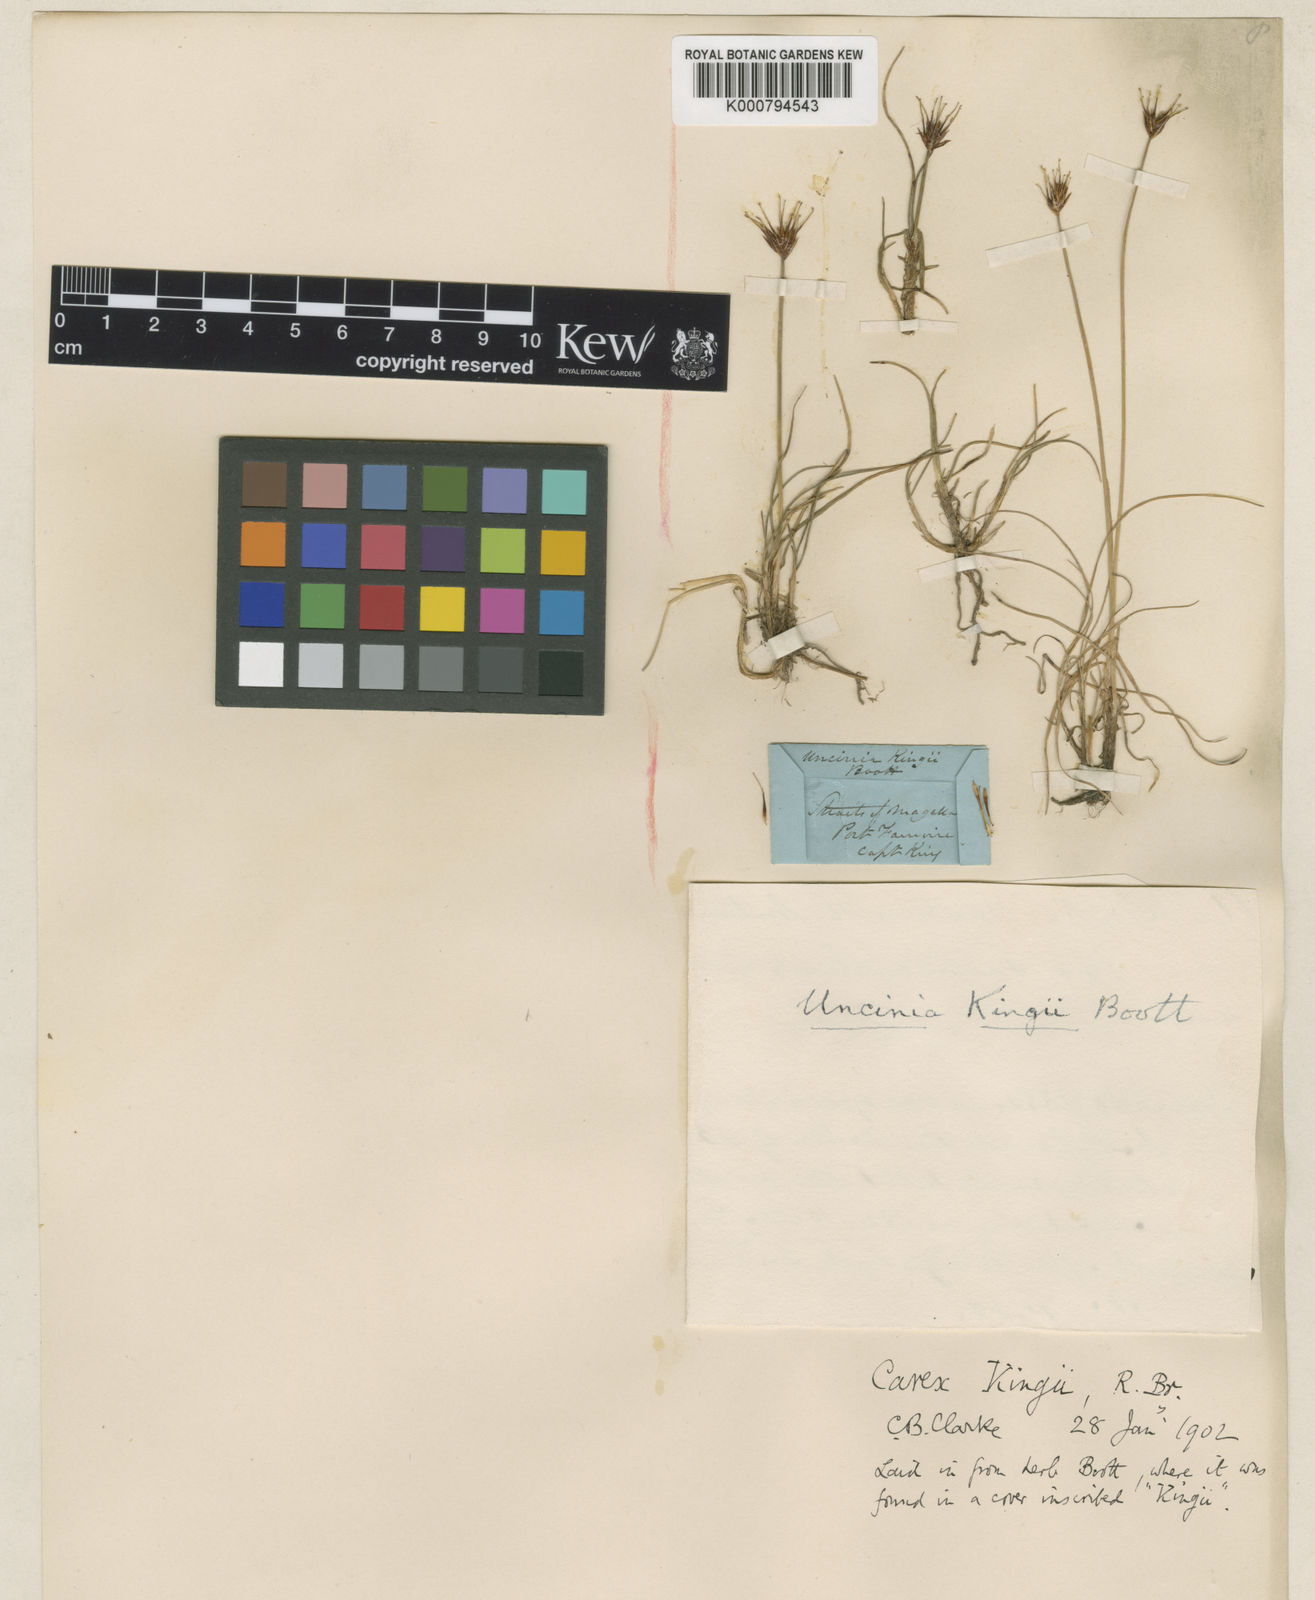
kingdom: Plantae
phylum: Tracheophyta
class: Liliopsida
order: Poales
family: Cyperaceae
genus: Carex
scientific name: Carex kingii
